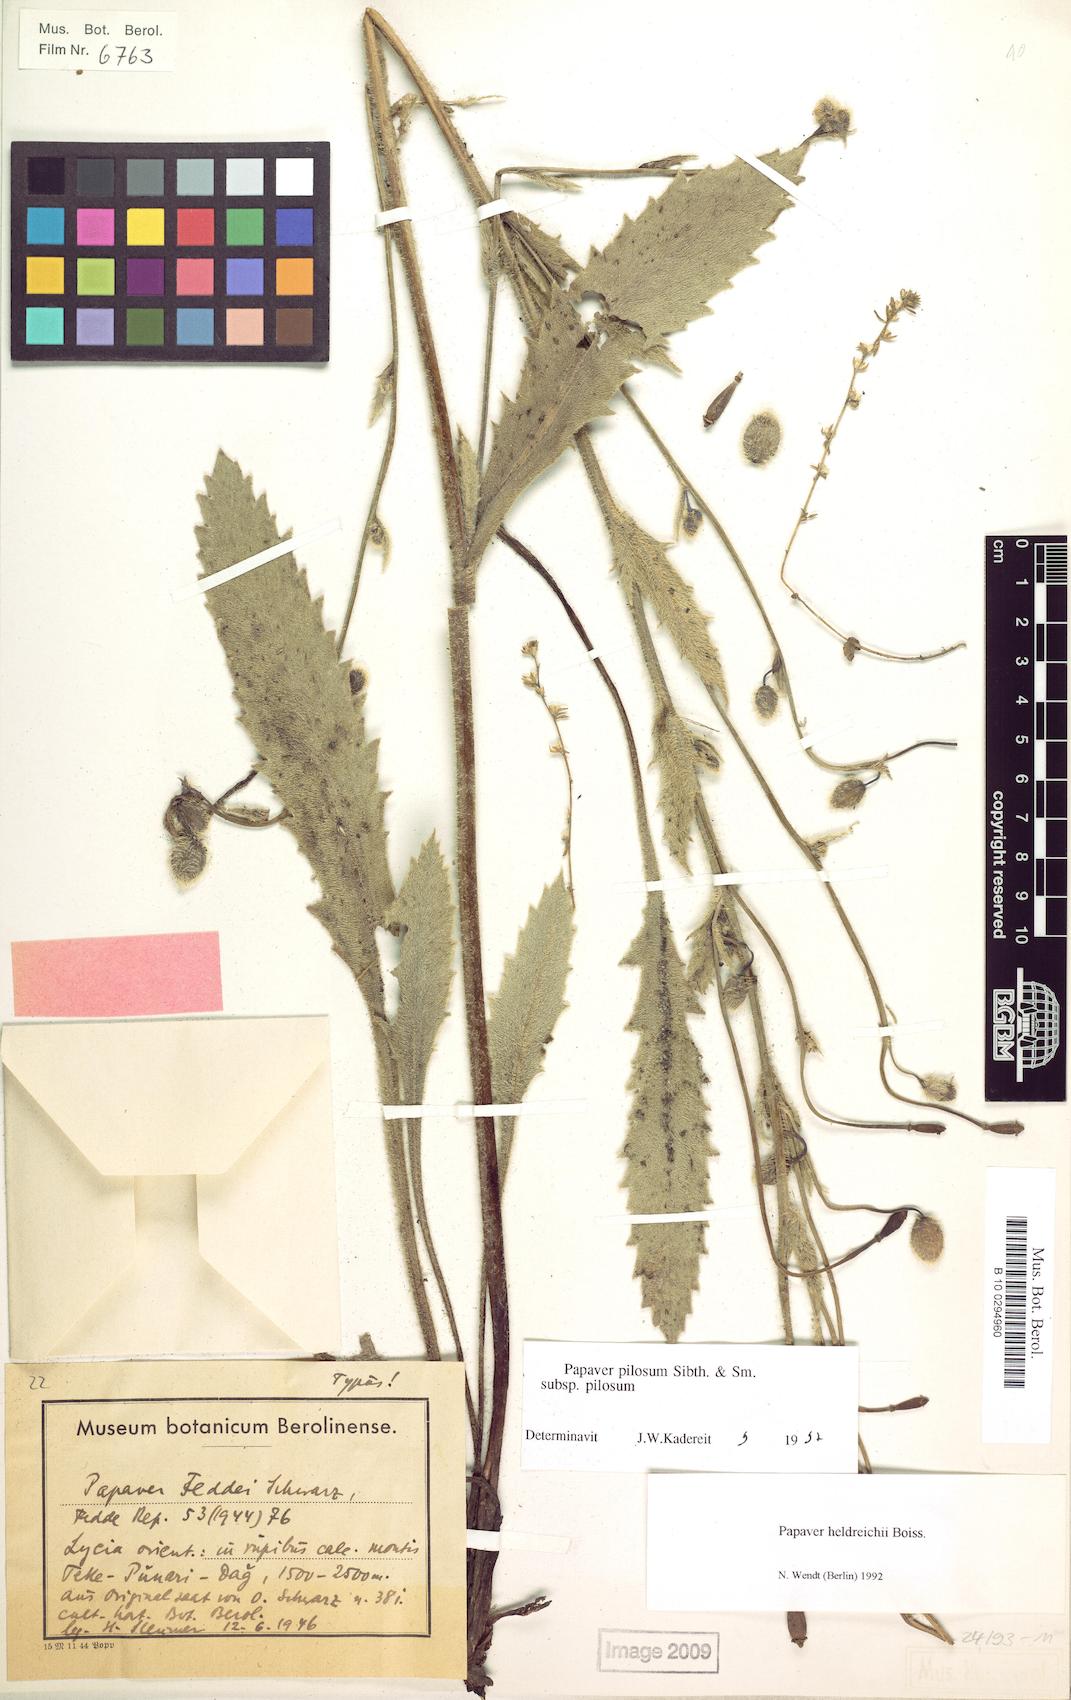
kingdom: Plantae
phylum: Tracheophyta
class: Magnoliopsida
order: Ranunculales
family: Papaveraceae
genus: Papaver
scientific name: Papaver pilosum
